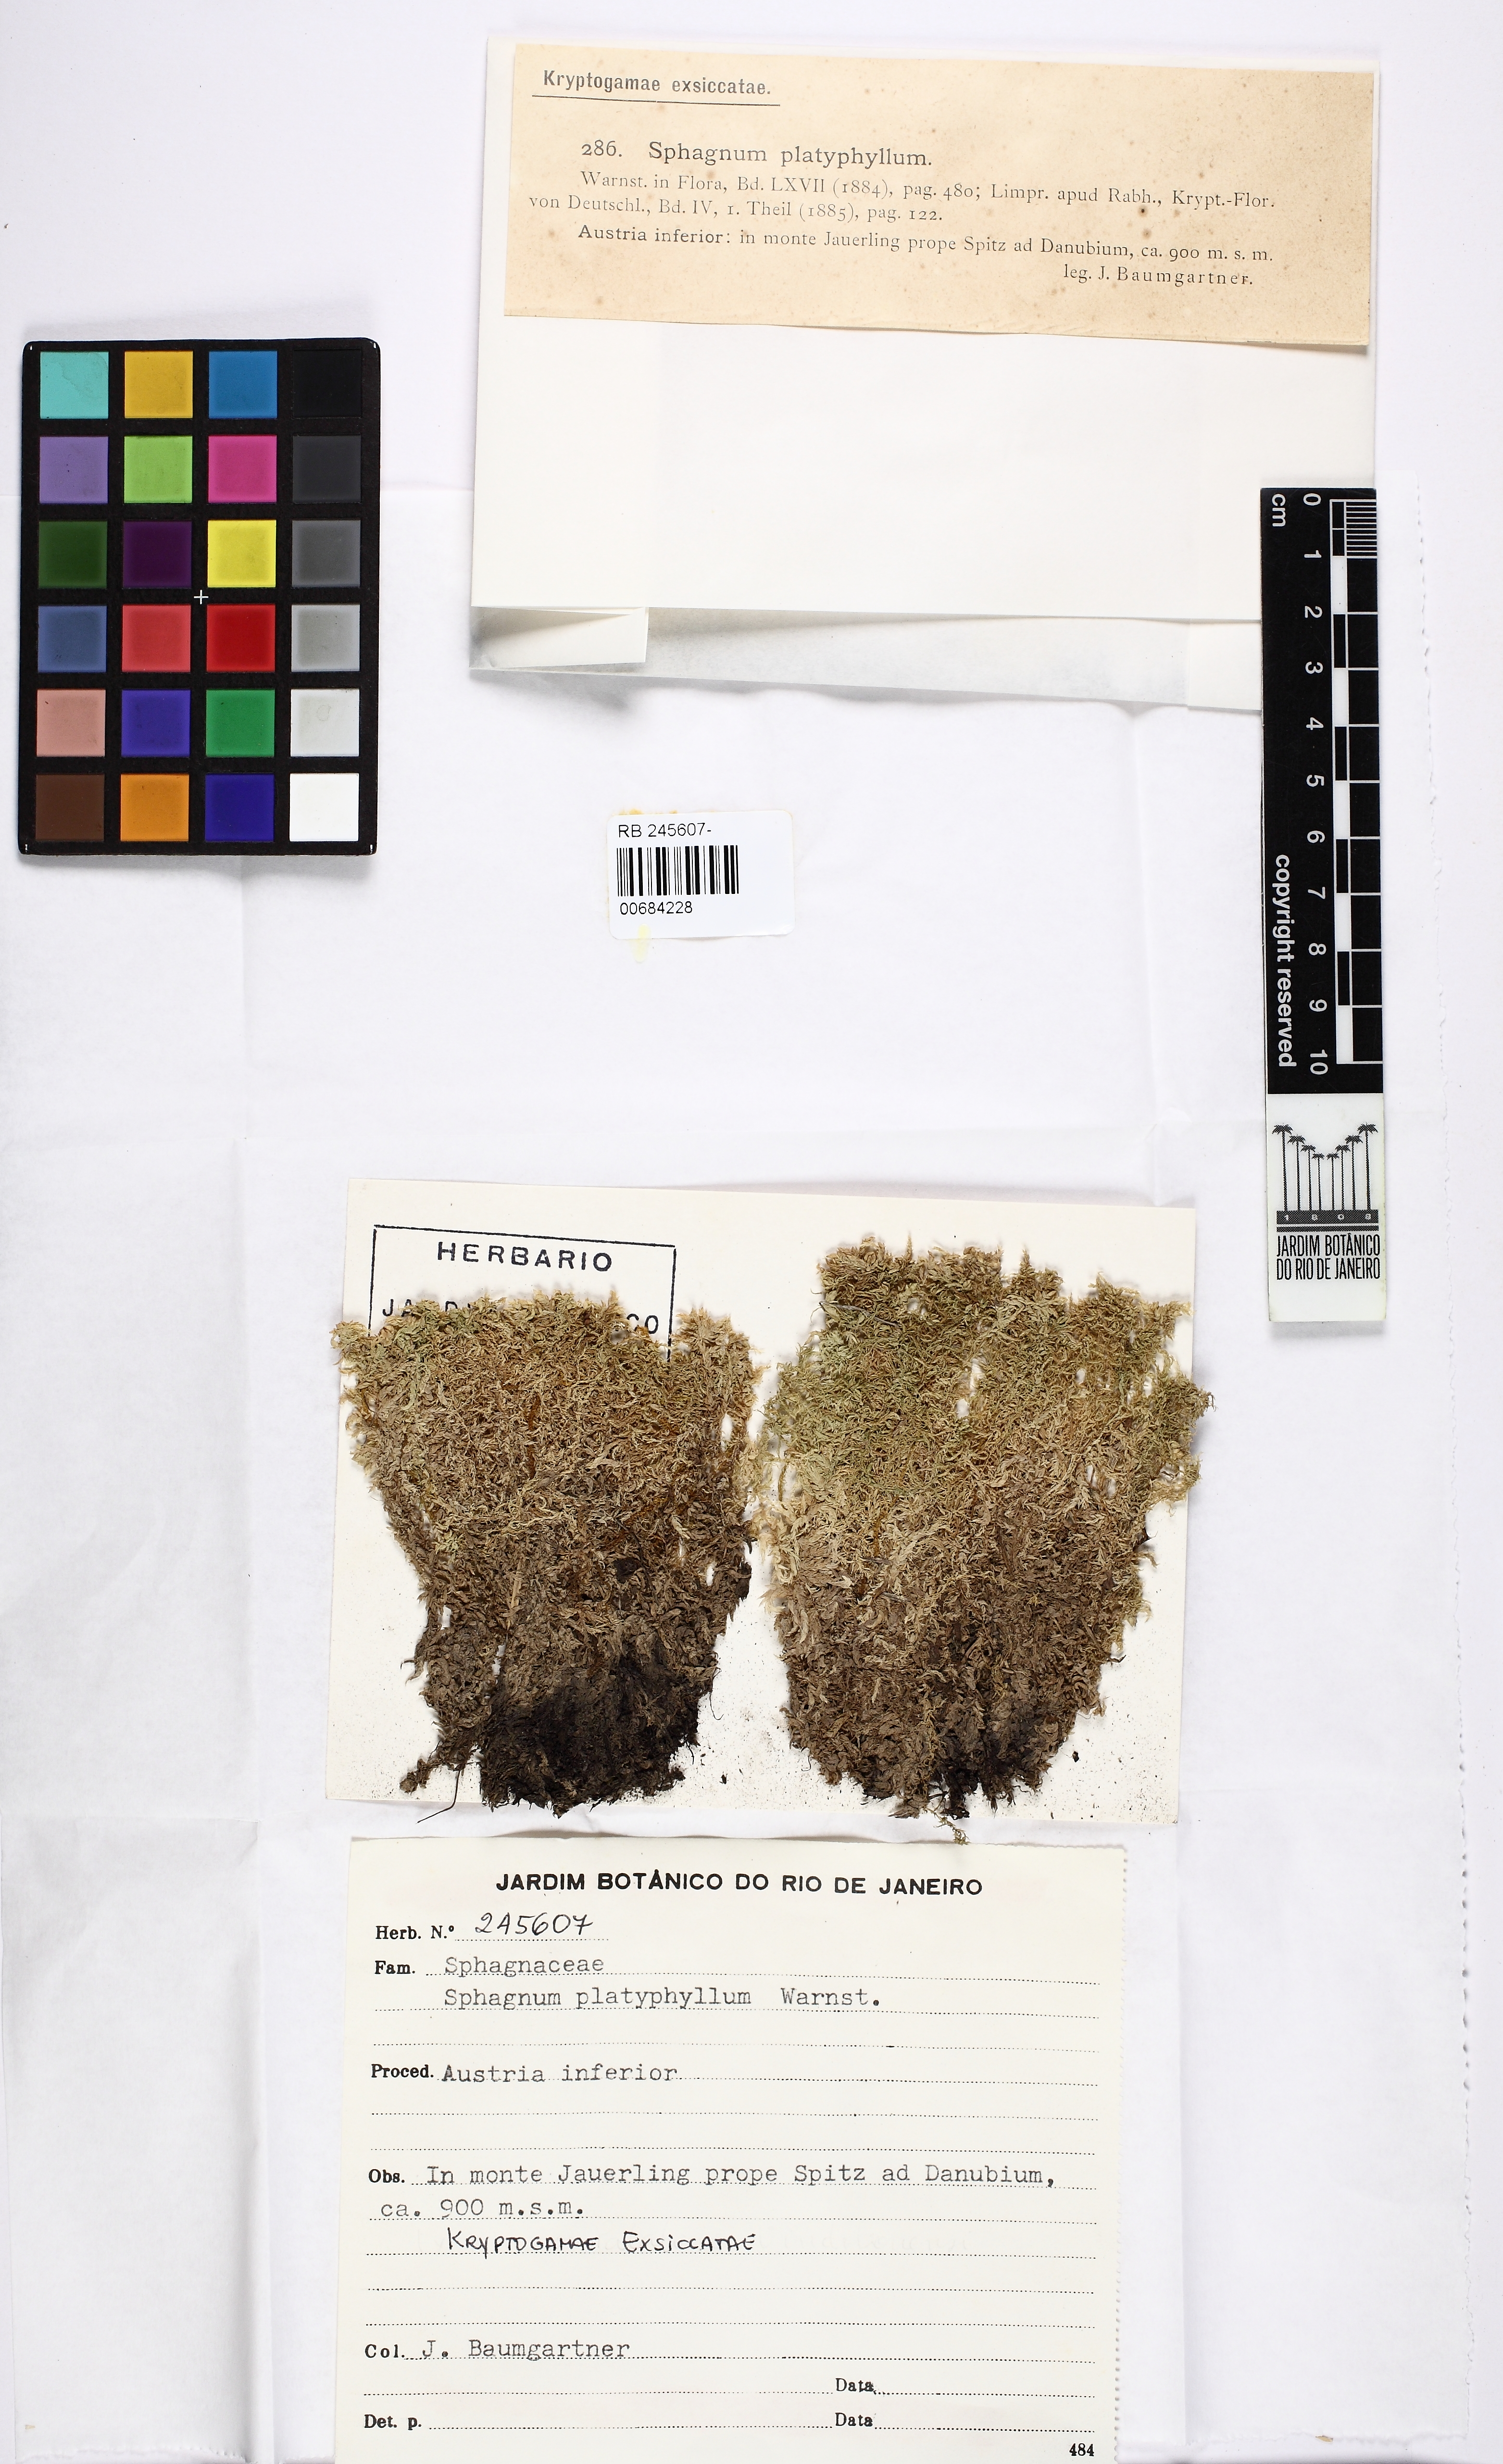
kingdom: Plantae
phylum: Bryophyta
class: Sphagnopsida
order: Sphagnales
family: Sphagnaceae
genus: Sphagnum
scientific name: Sphagnum platyphyllum
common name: Flat-leaved peat moss
